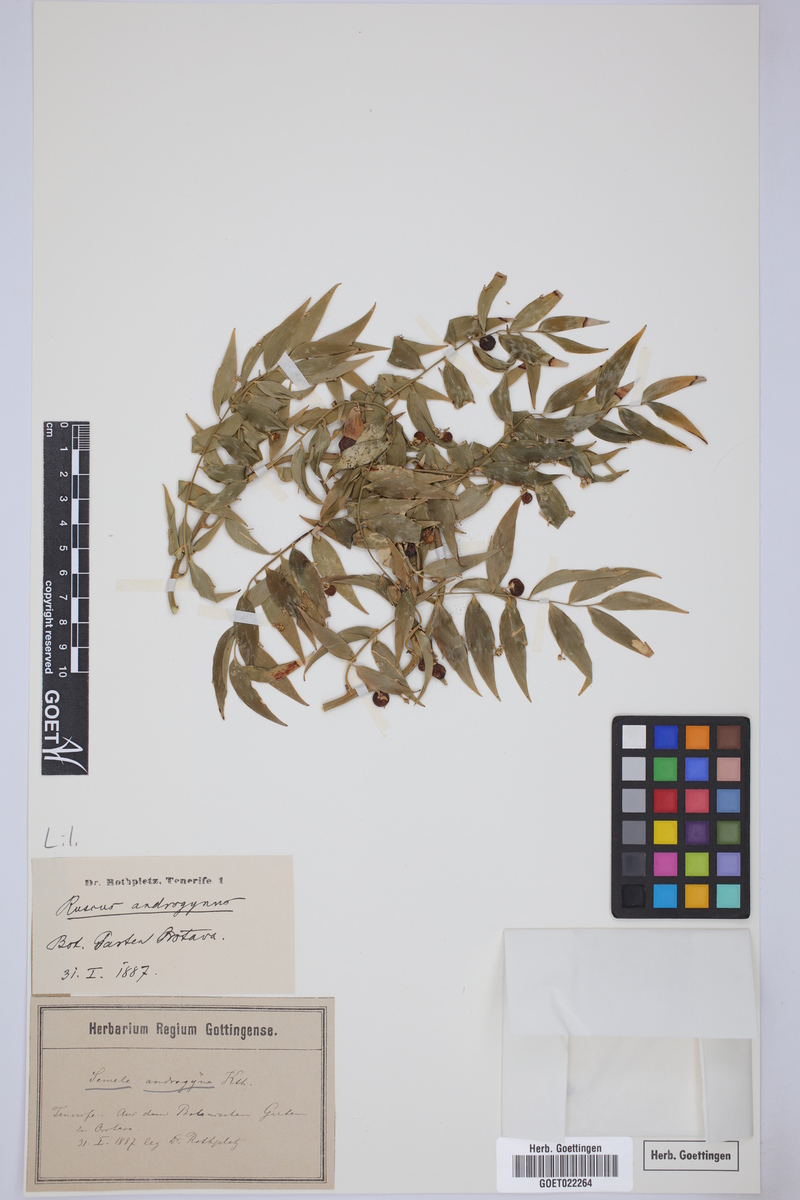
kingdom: Plantae
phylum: Tracheophyta
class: Liliopsida
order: Asparagales
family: Asparagaceae
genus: Semele
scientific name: Semele androgyna
